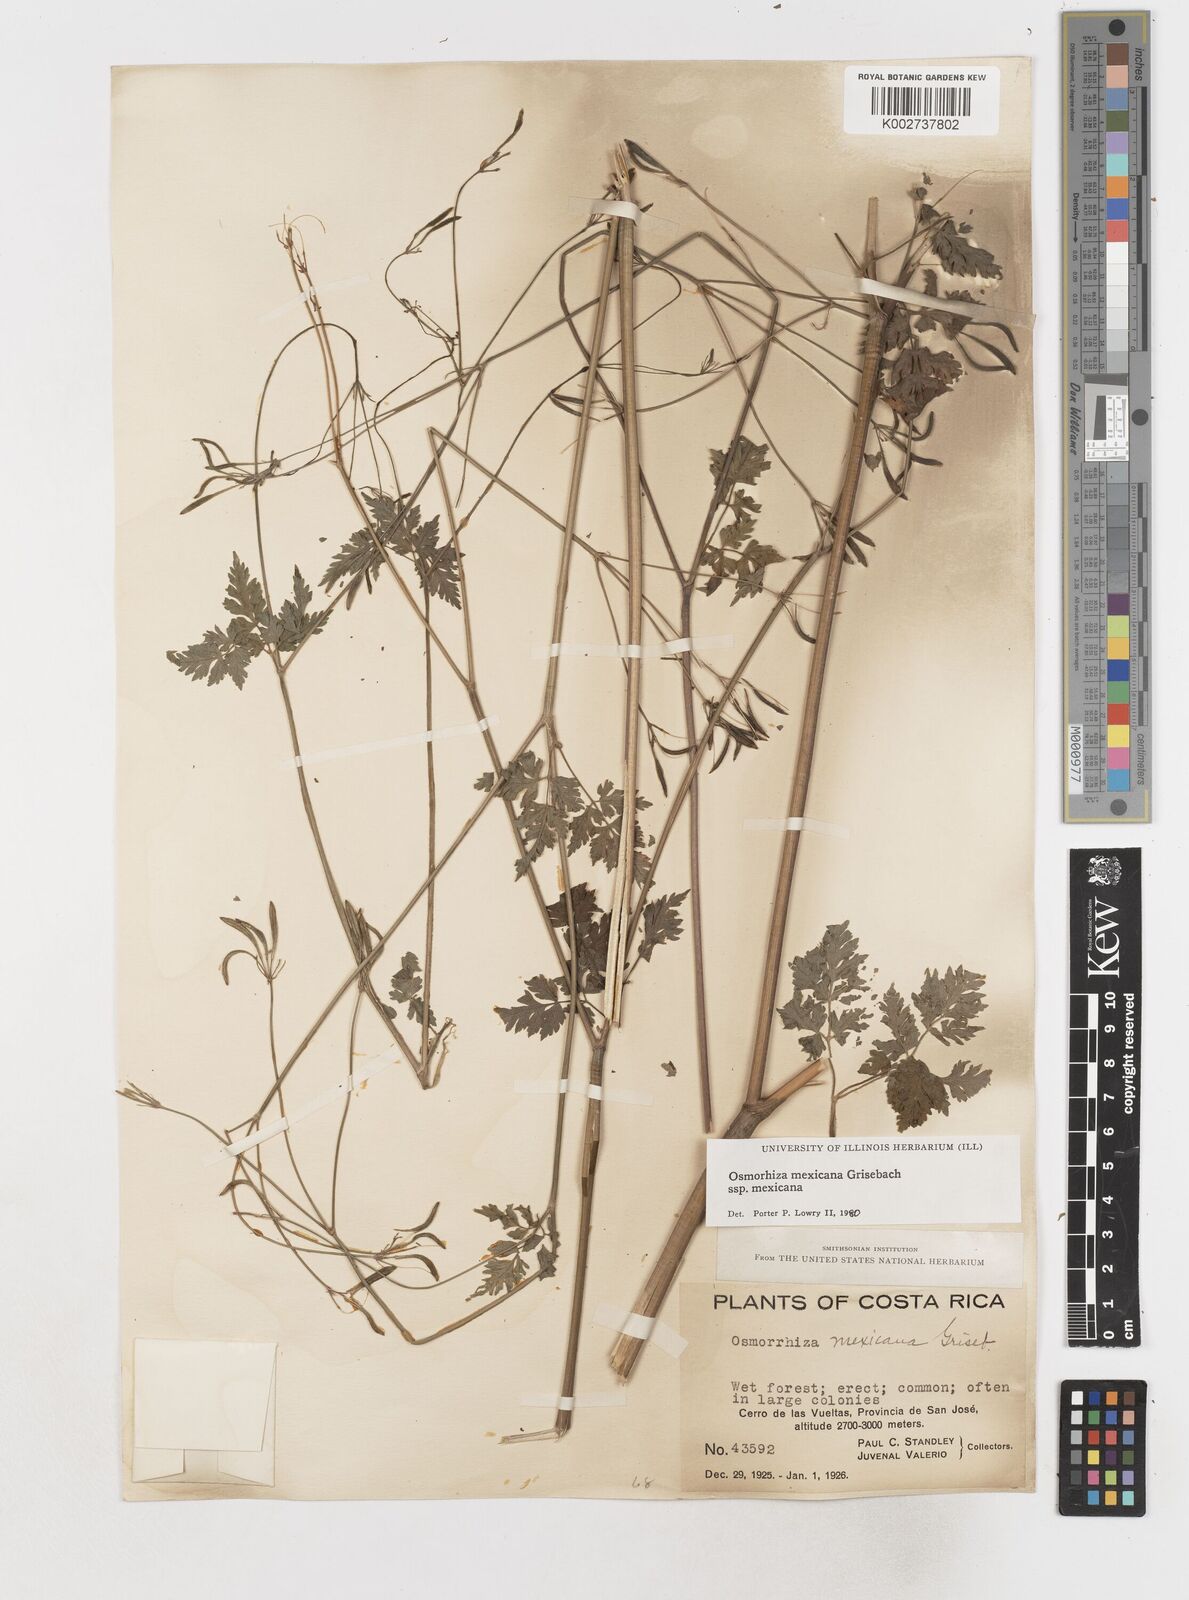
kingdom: Plantae
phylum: Tracheophyta
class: Magnoliopsida
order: Apiales
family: Apiaceae
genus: Osmorhiza
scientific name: Osmorhiza mexicana
